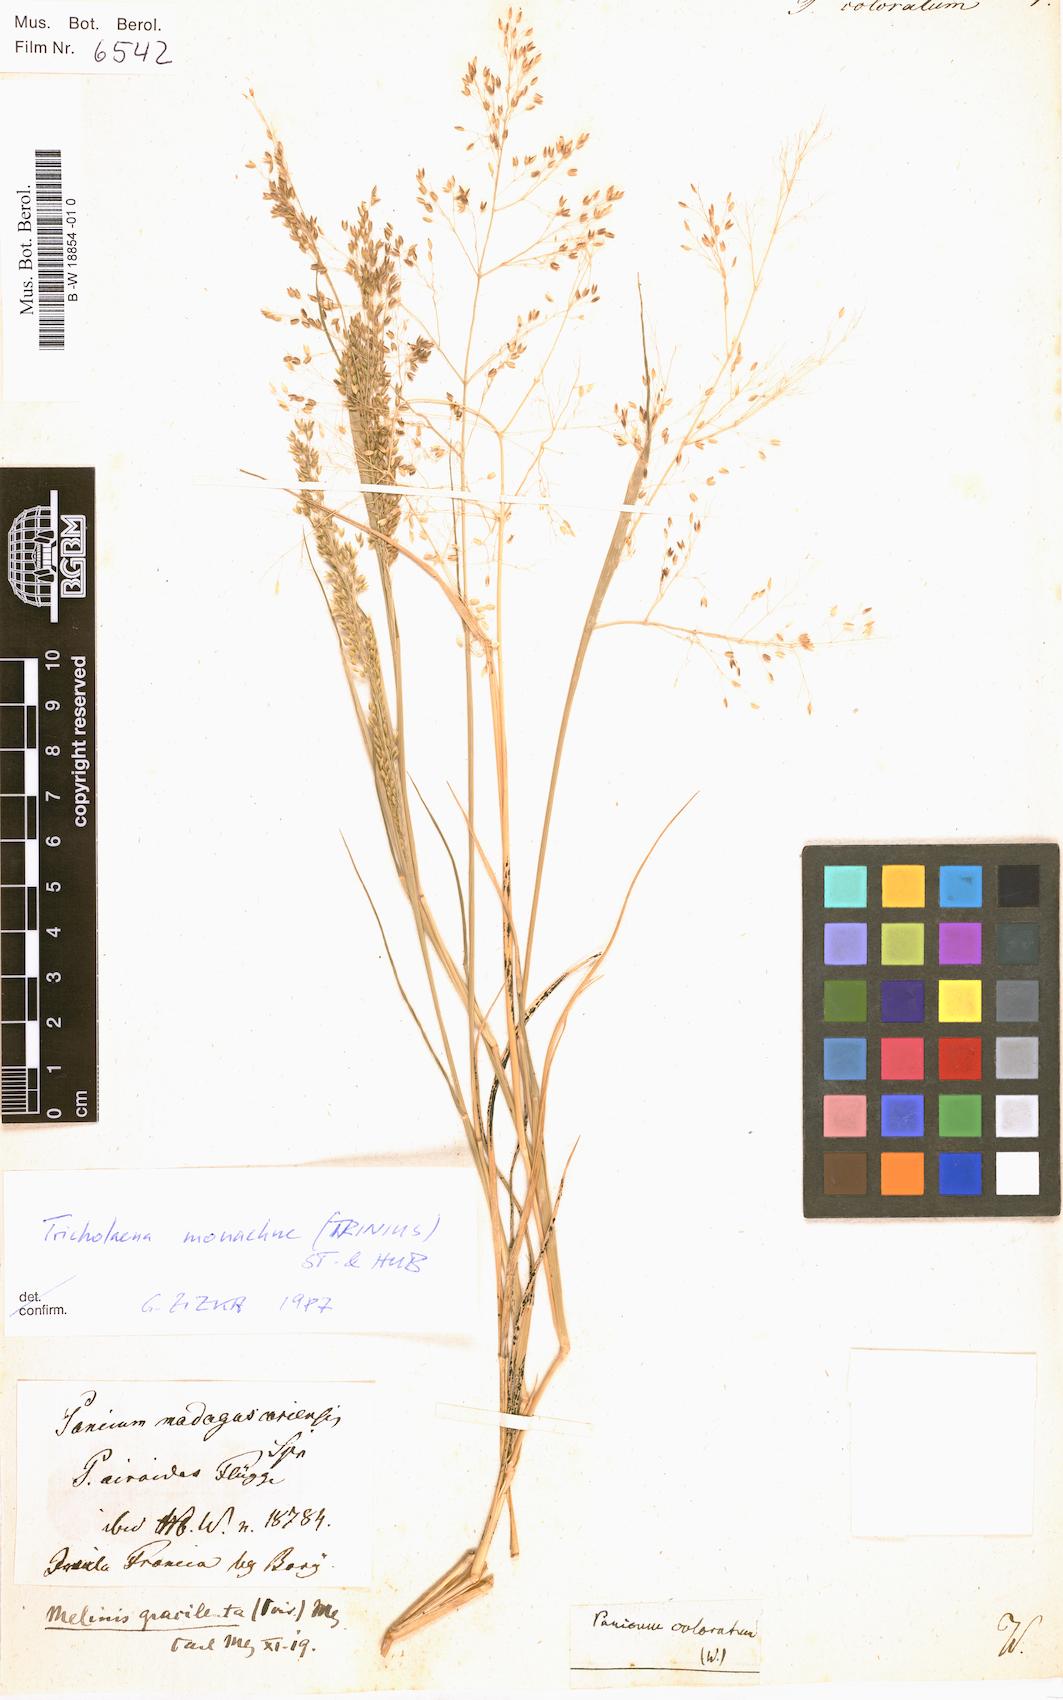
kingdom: Plantae
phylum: Tracheophyta
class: Liliopsida
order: Poales
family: Poaceae
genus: Panicum
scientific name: Panicum coloratum
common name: Kleingrass
